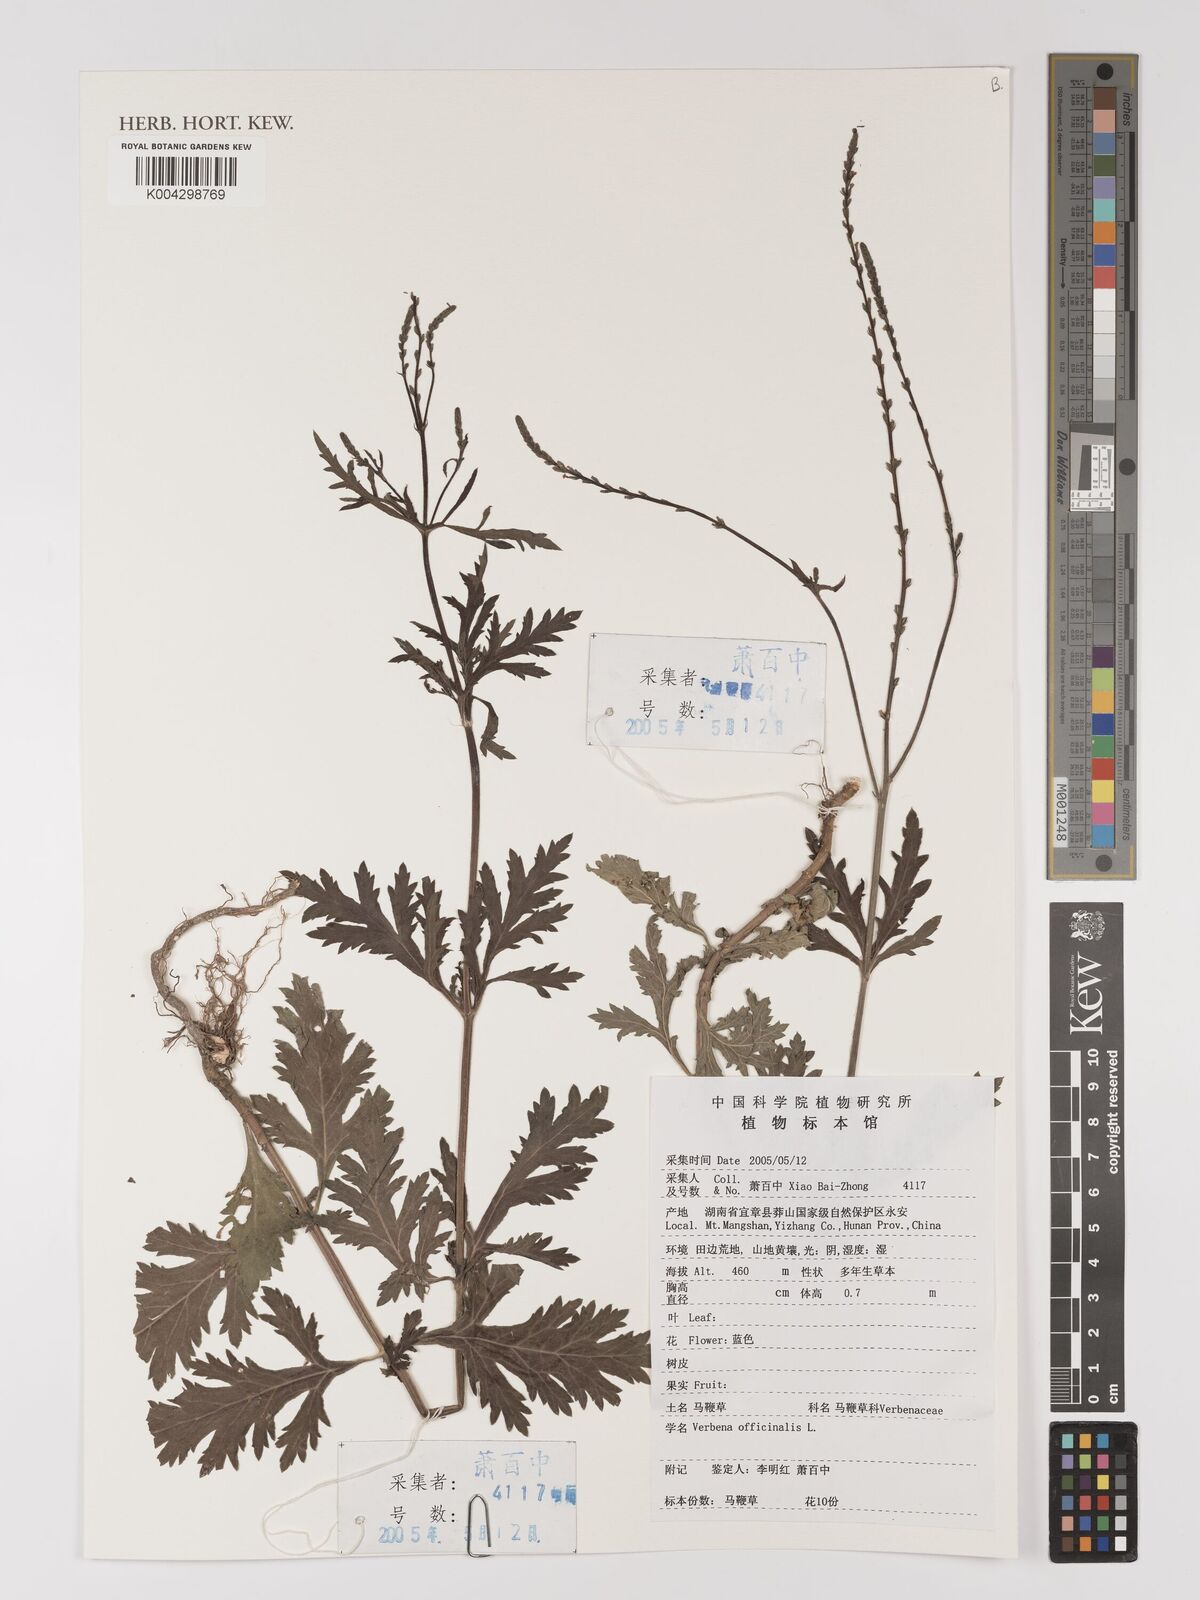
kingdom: Plantae
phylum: Tracheophyta
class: Magnoliopsida
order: Lamiales
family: Verbenaceae
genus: Verbena
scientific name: Verbena officinalis
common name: Vervain
